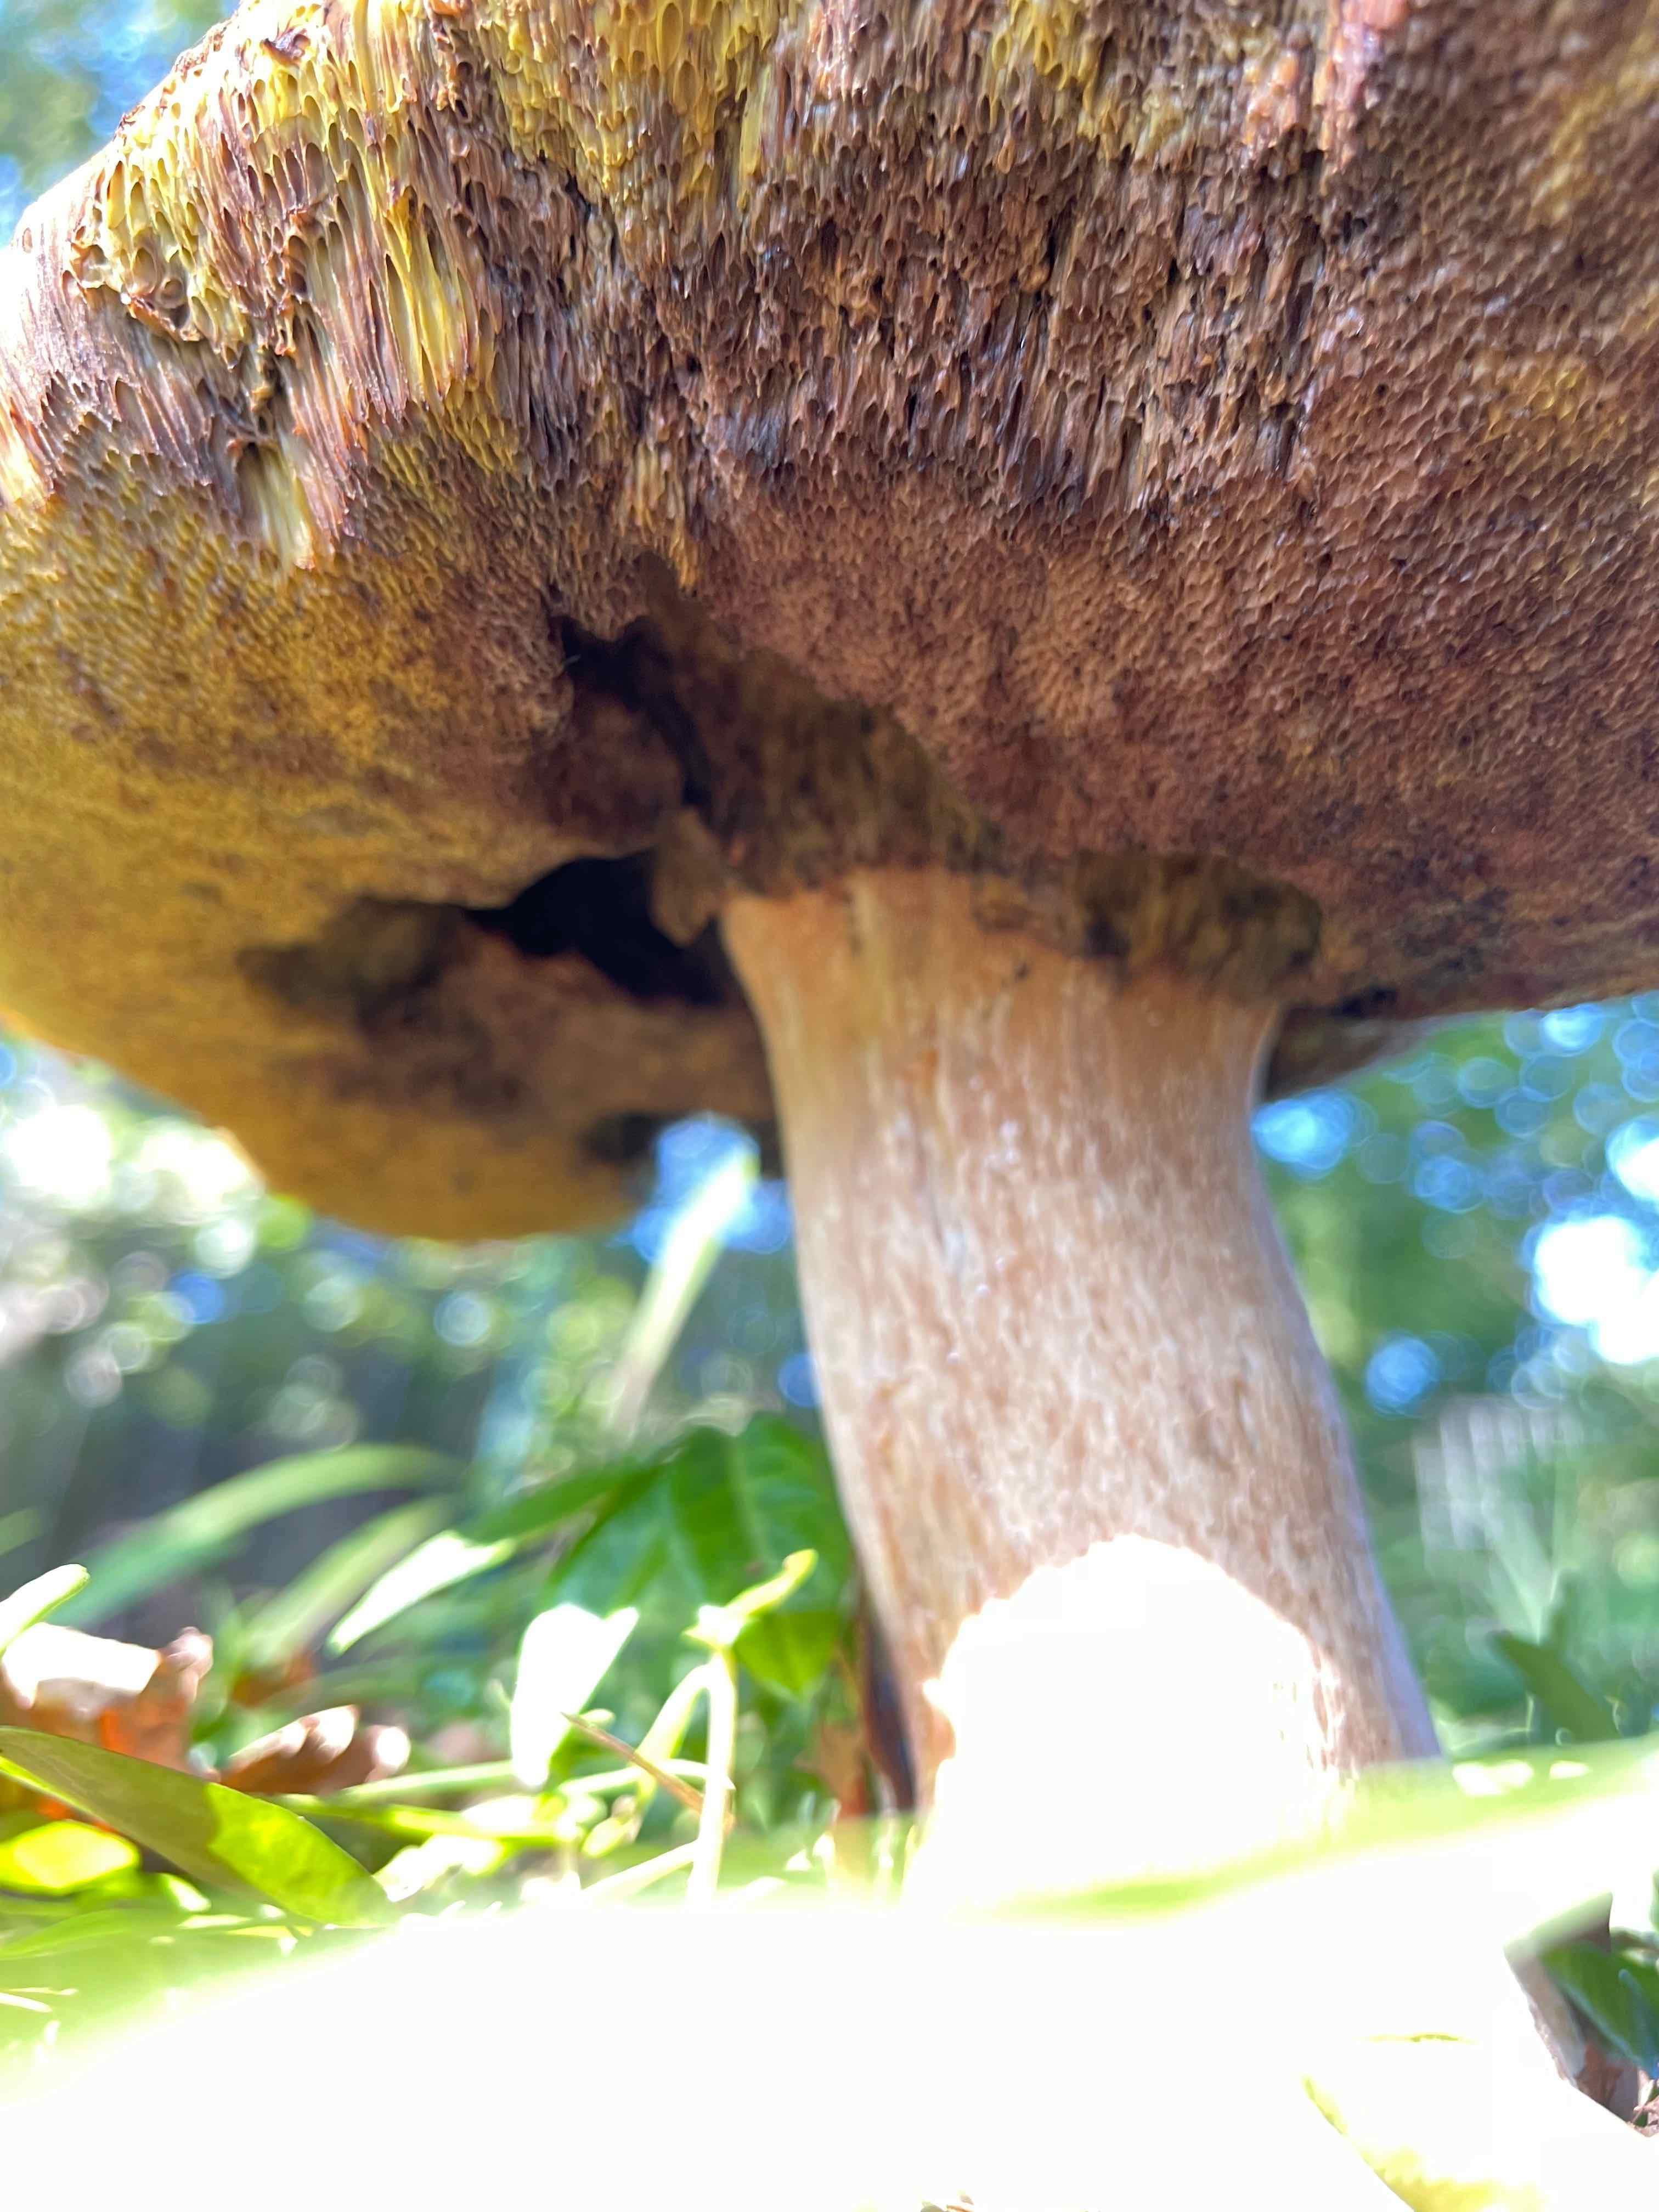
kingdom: Fungi
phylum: Basidiomycota
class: Agaricomycetes
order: Boletales
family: Boletaceae
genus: Boletus
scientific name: Boletus edulis
